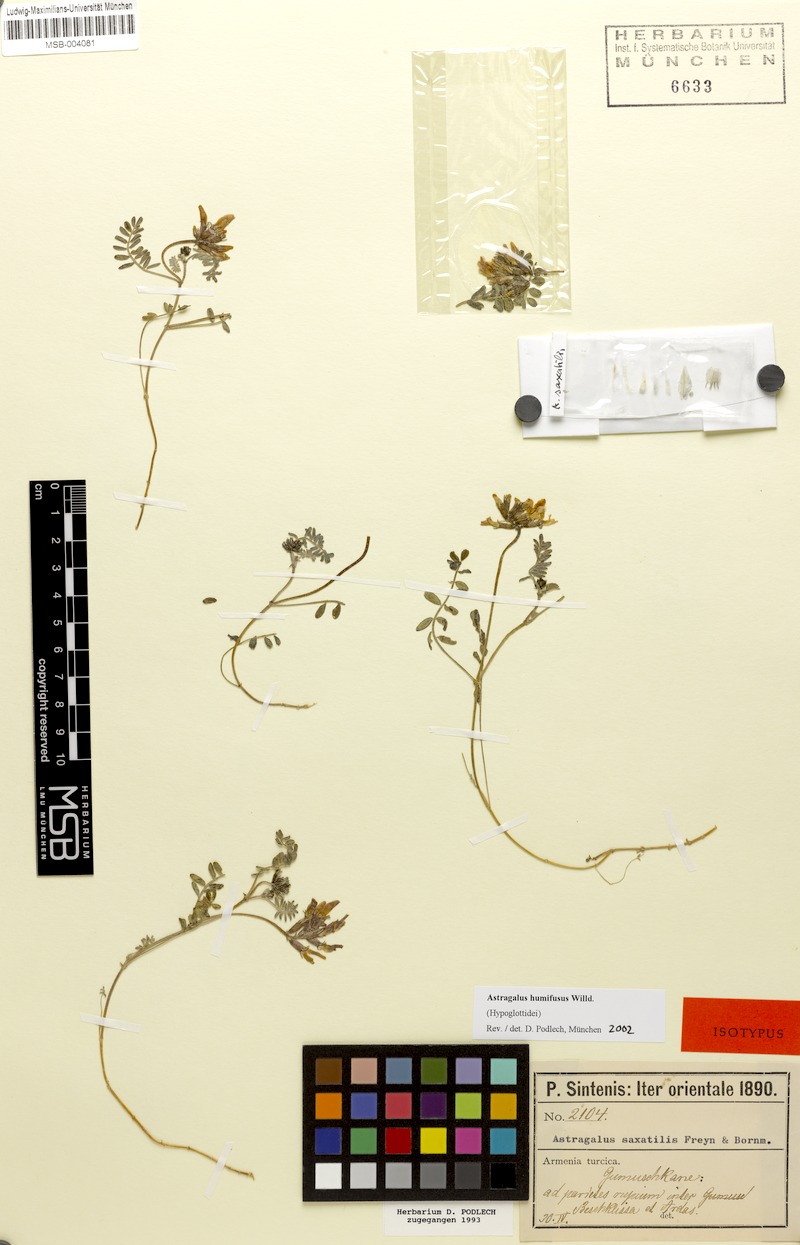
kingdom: Plantae
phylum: Tracheophyta
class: Magnoliopsida
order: Fabales
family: Fabaceae
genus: Astragalus
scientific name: Astragalus humifusus
